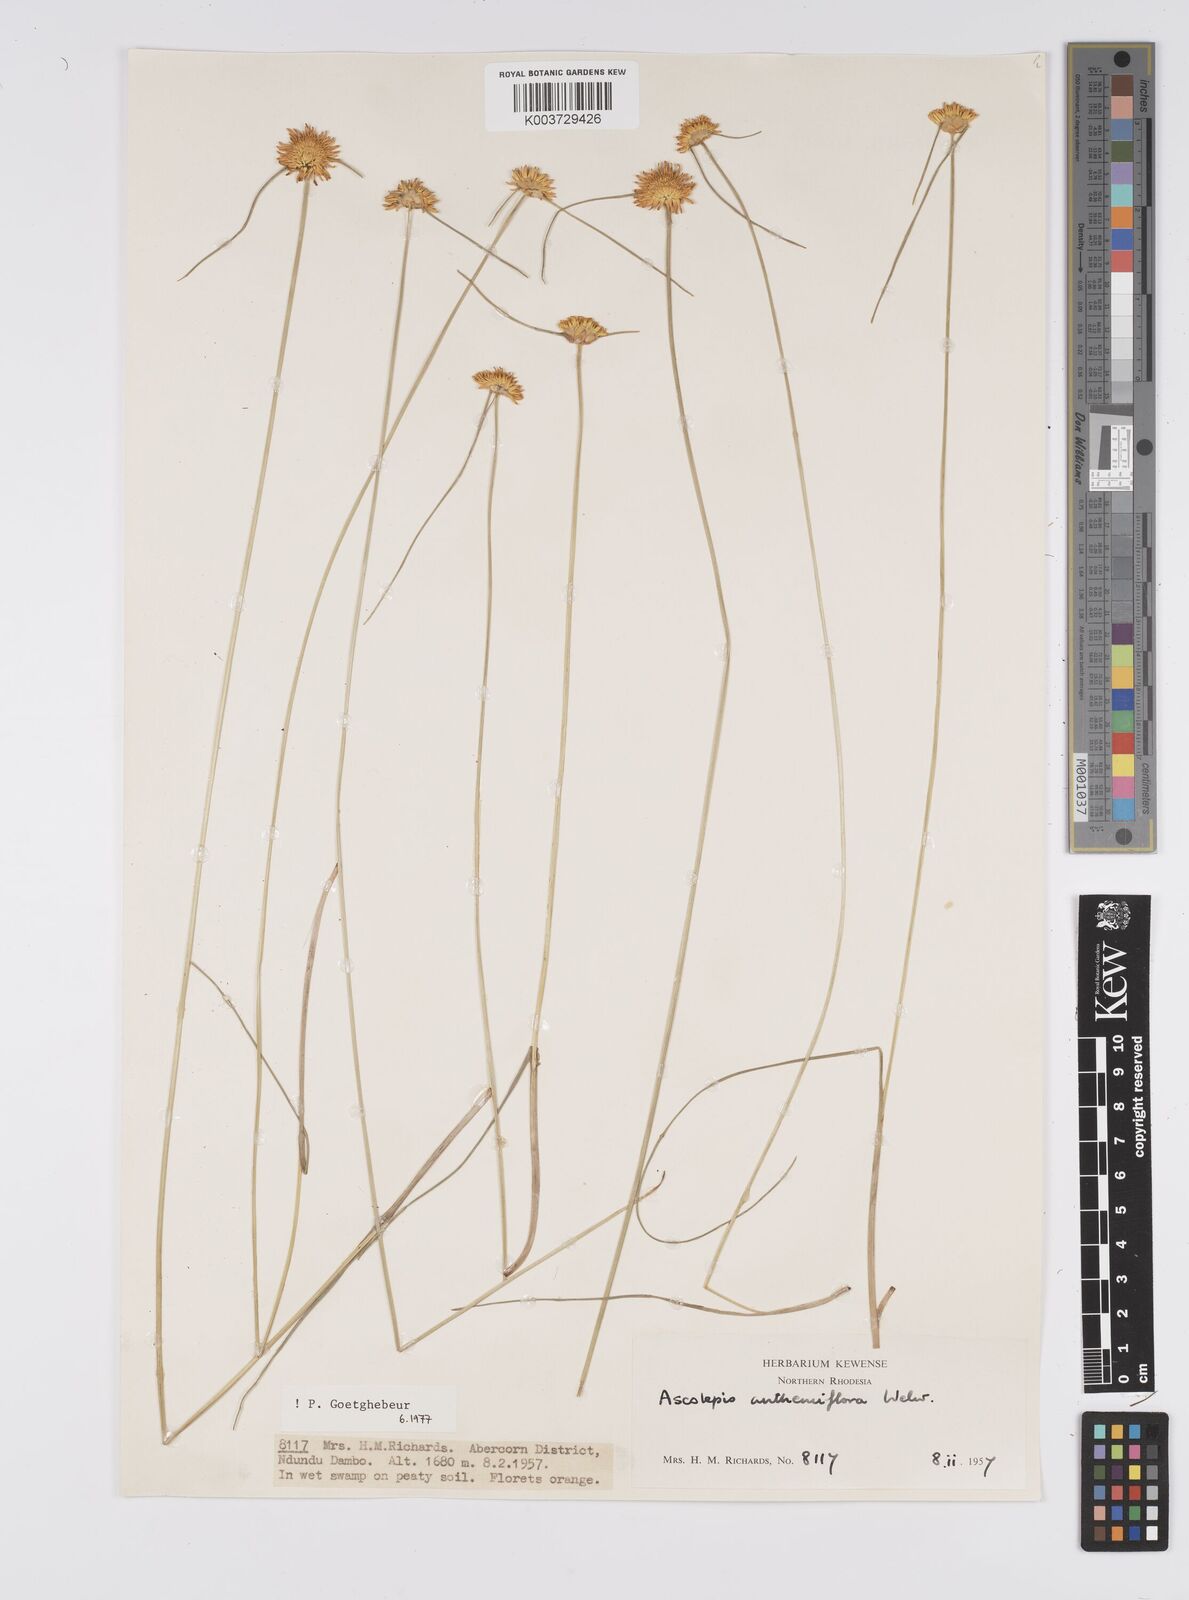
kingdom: Plantae
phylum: Tracheophyta
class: Liliopsida
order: Poales
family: Cyperaceae
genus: Cyperus
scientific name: Cyperus
